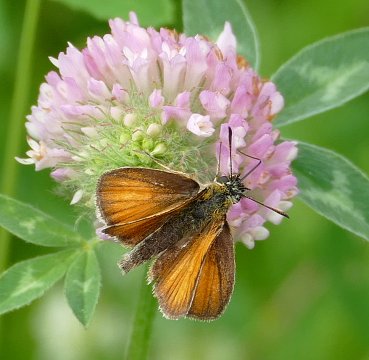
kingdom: Animalia
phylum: Arthropoda
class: Insecta
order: Lepidoptera
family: Hesperiidae
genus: Thymelicus
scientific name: Thymelicus lineola
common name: European Skipper
